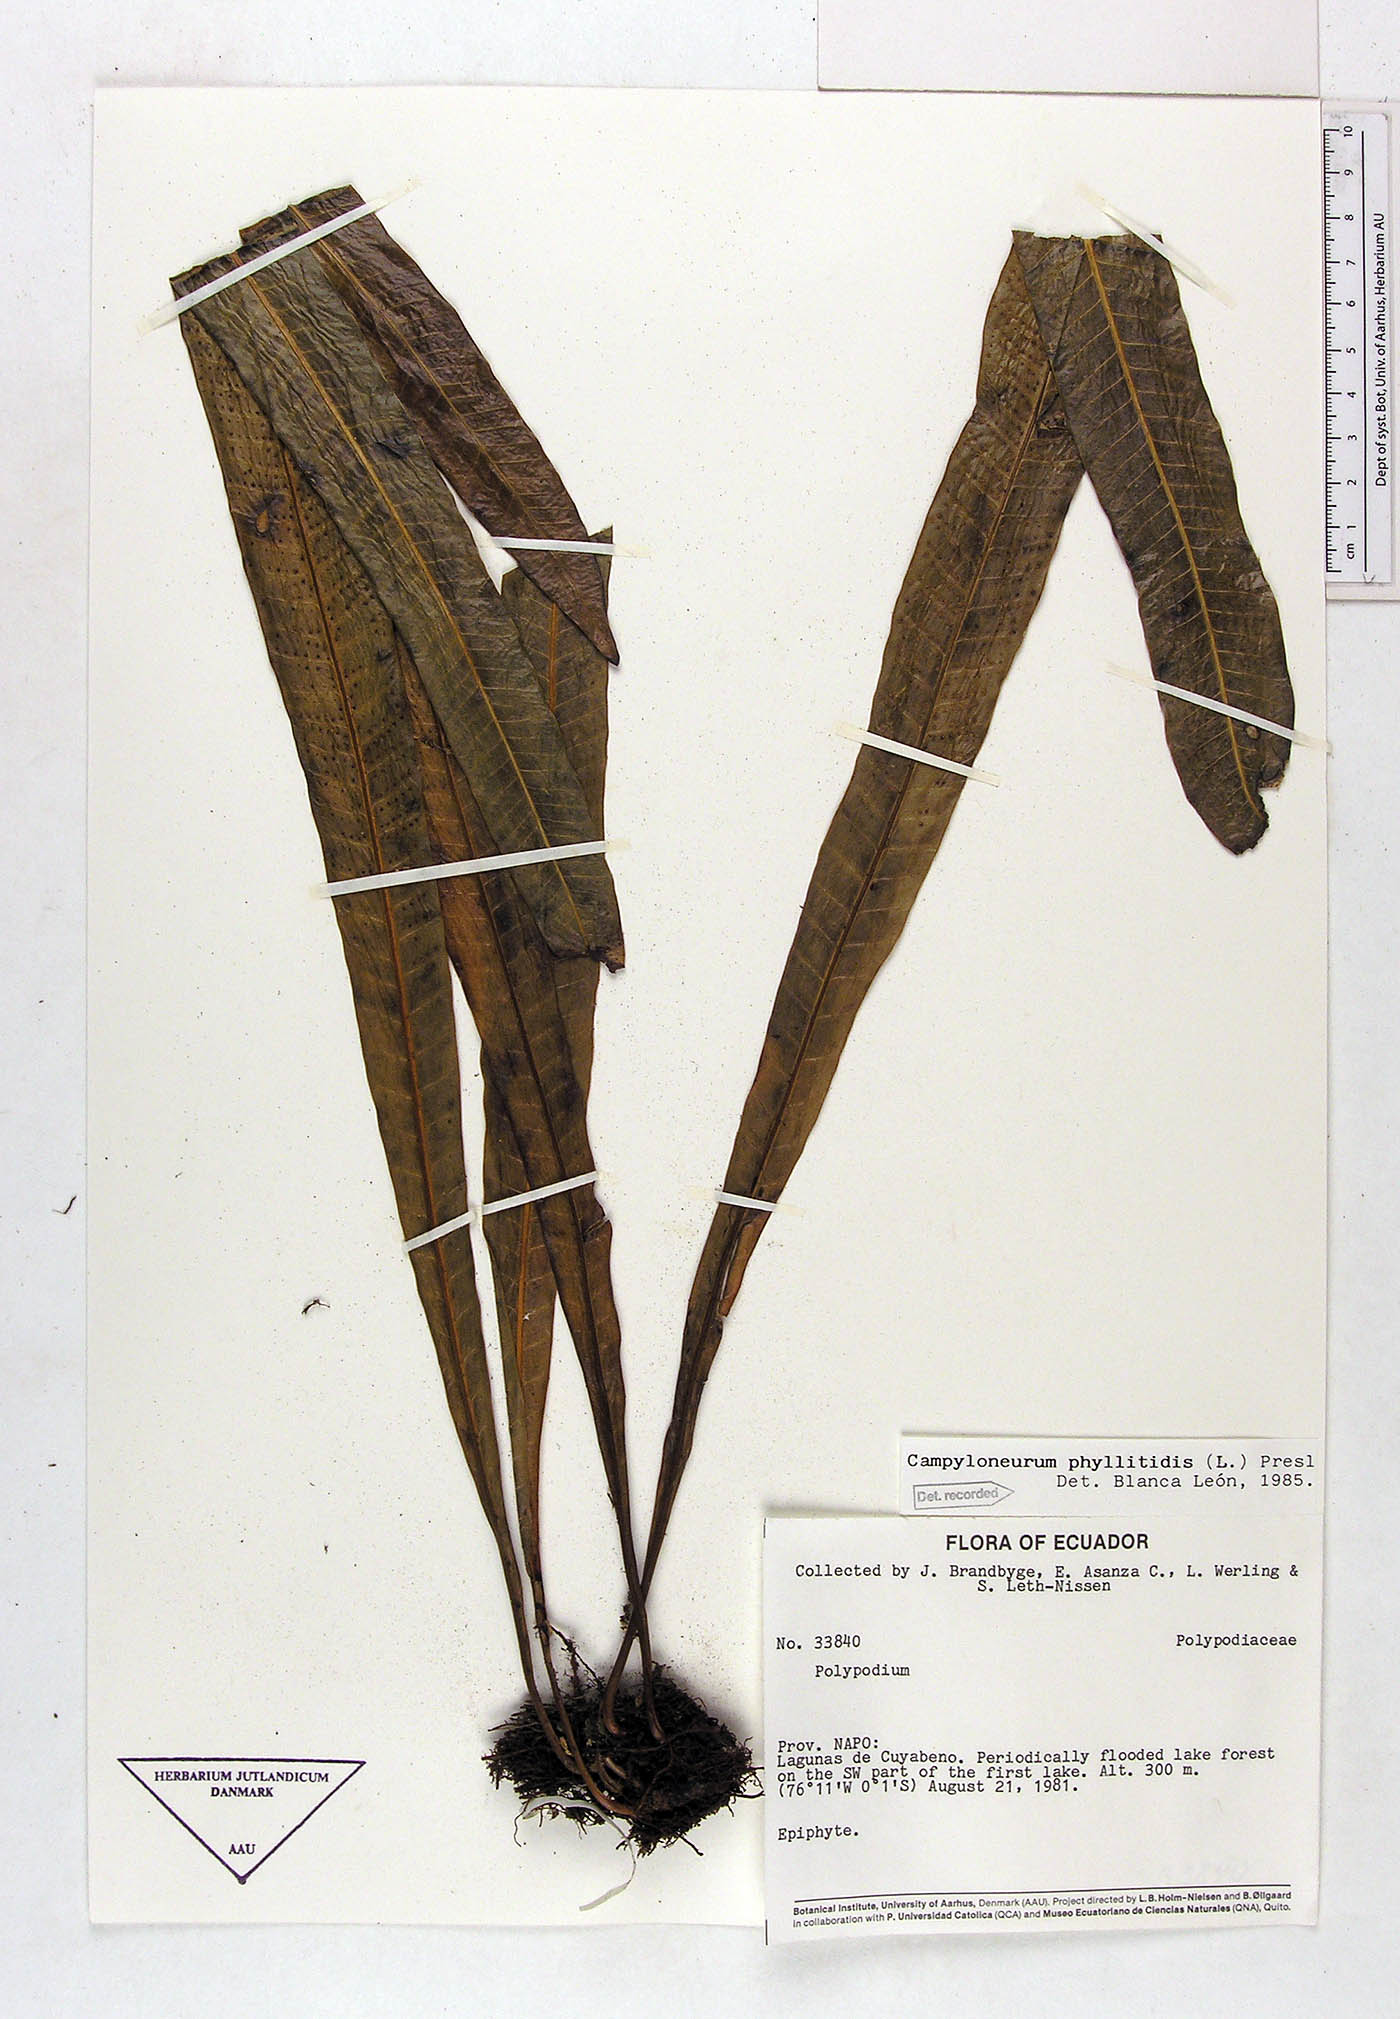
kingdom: Plantae
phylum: Tracheophyta
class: Polypodiopsida
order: Polypodiales
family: Polypodiaceae
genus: Campyloneurum
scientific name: Campyloneurum phyllitidis
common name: Cow-tongue fern
